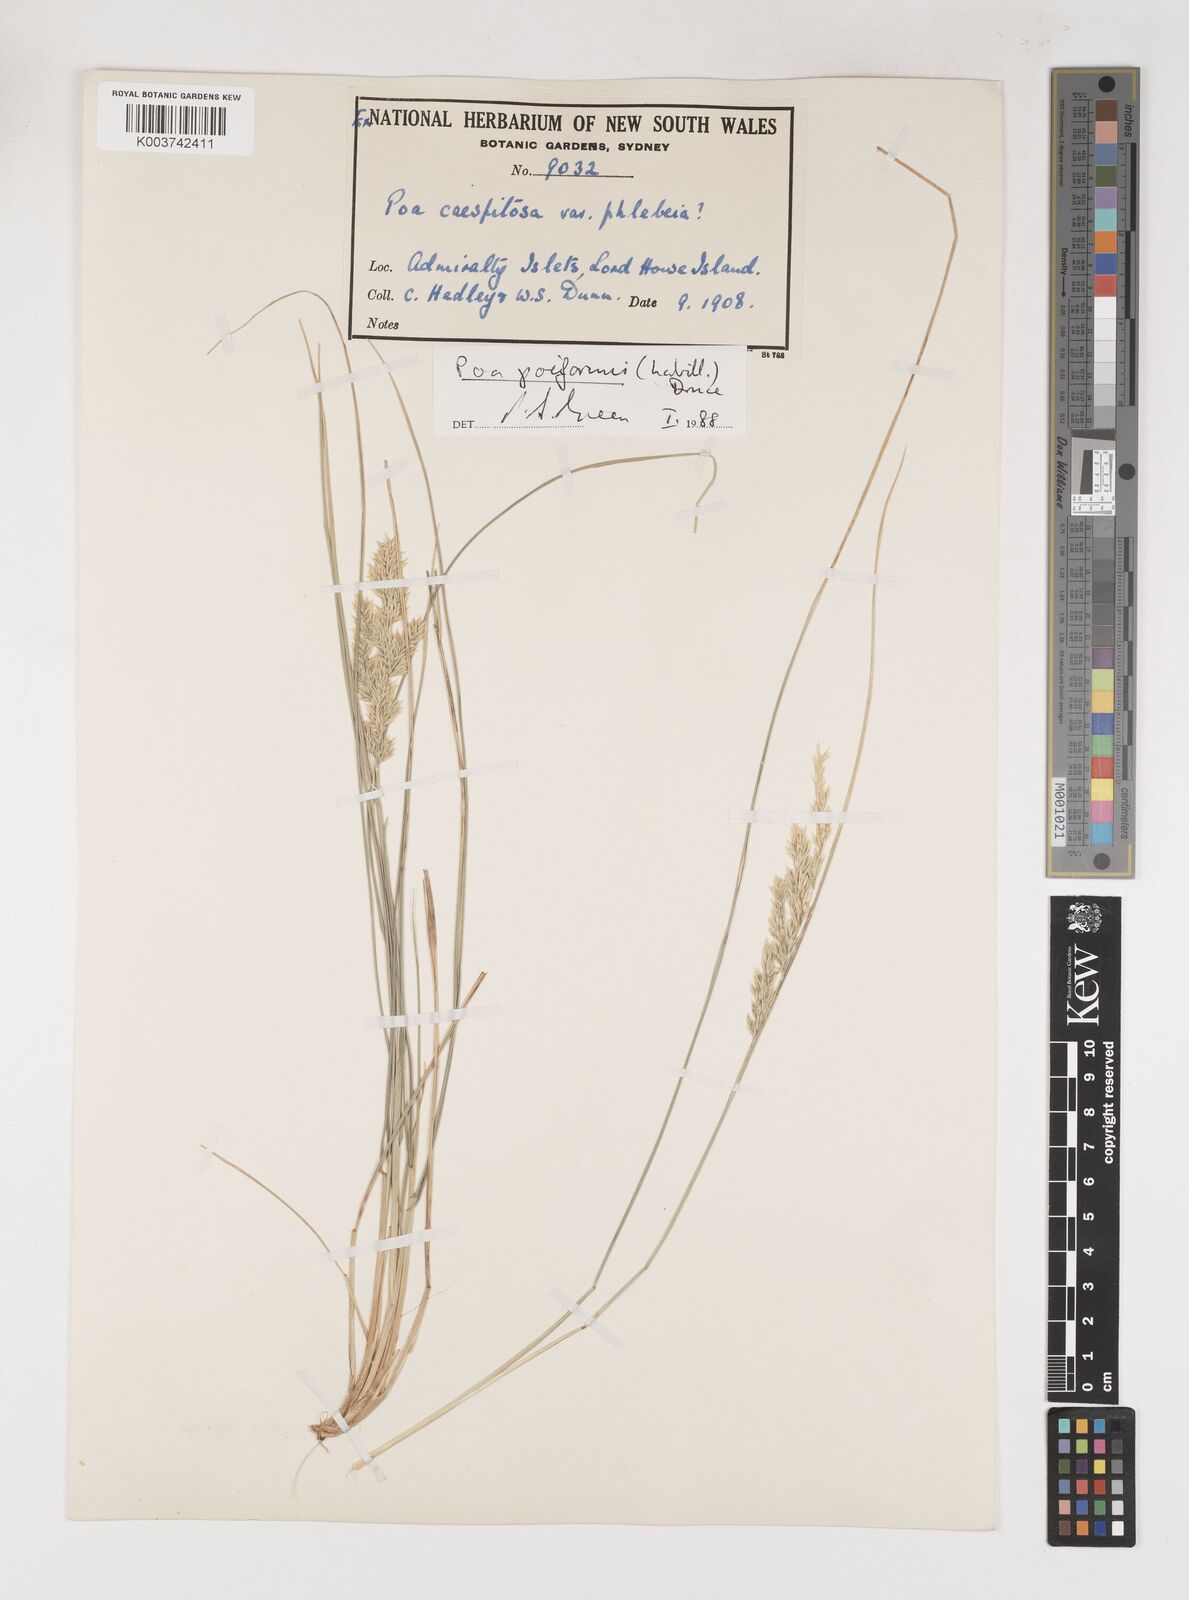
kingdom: Plantae
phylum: Tracheophyta
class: Liliopsida
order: Poales
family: Poaceae
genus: Poa
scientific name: Poa poiformis
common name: Tussock poa
